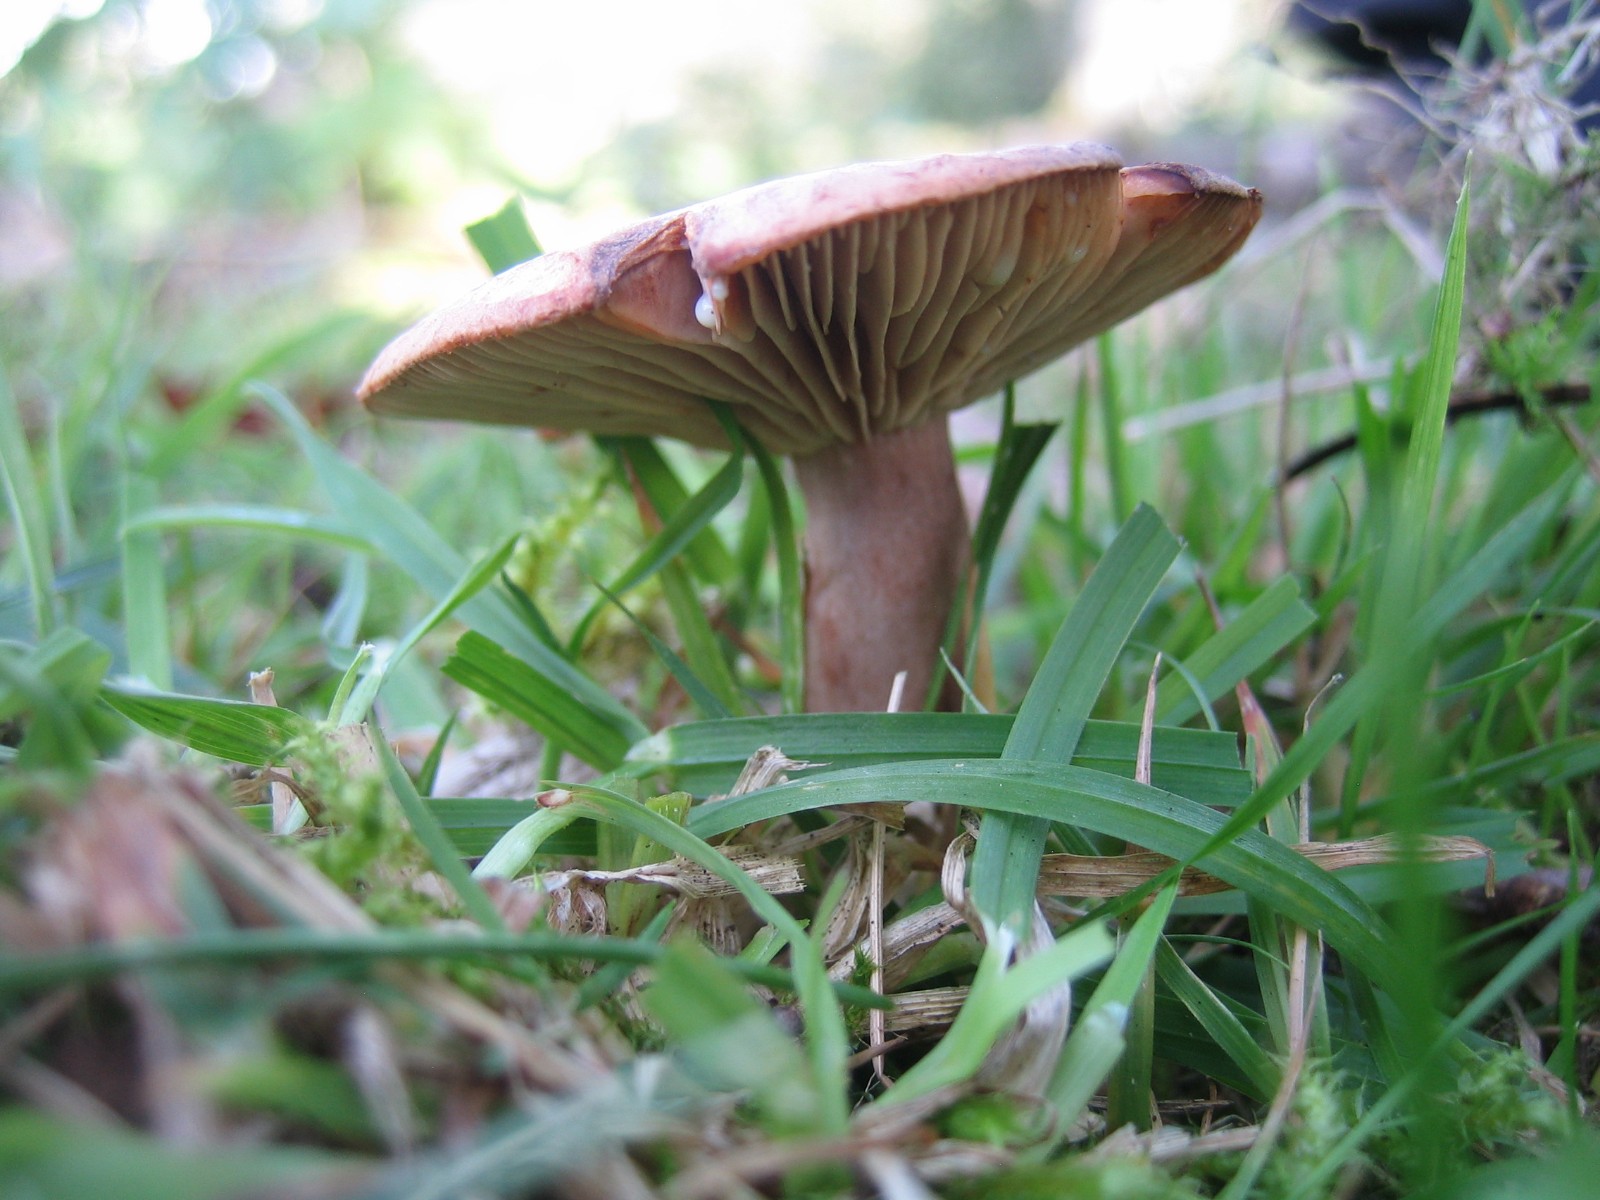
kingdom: Fungi
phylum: Basidiomycota
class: Agaricomycetes
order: Russulales
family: Russulaceae
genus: Lactarius
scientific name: Lactarius quietus
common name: ege-mælkehat
